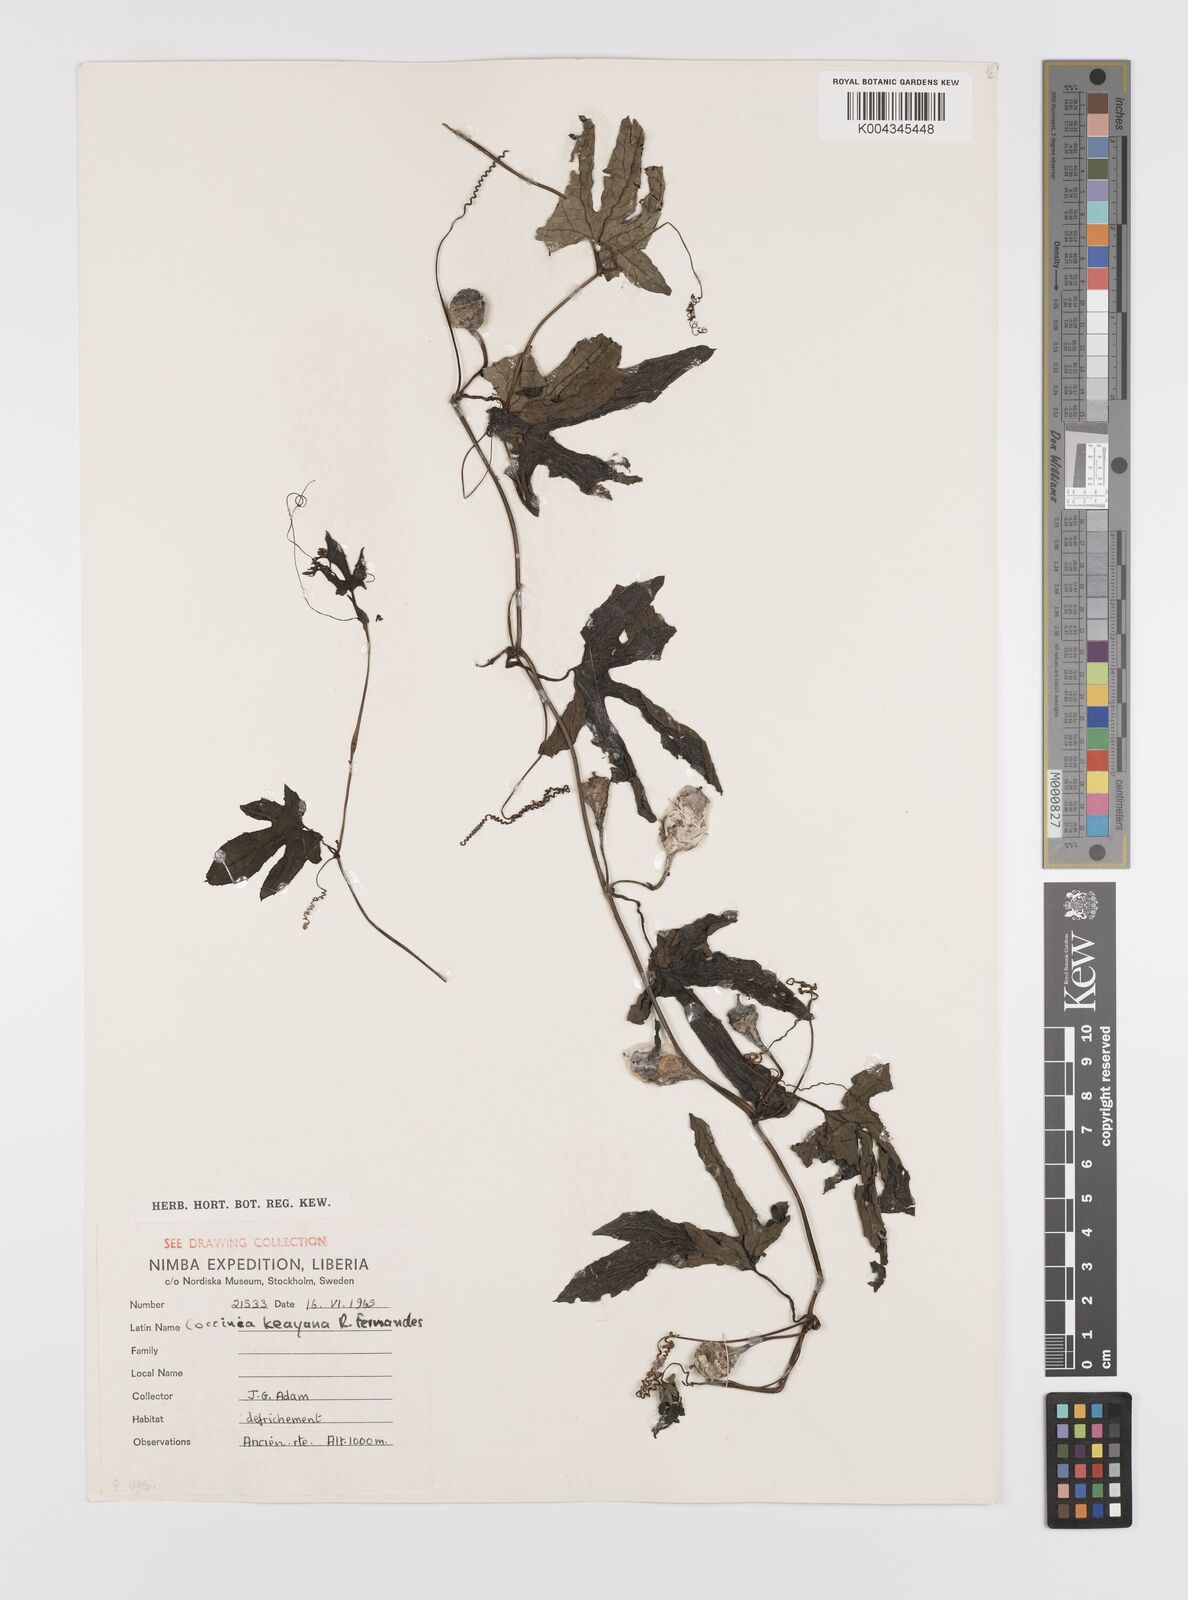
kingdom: Plantae
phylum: Tracheophyta
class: Magnoliopsida
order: Cucurbitales
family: Cucurbitaceae
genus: Coccinia
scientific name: Coccinia keayana
